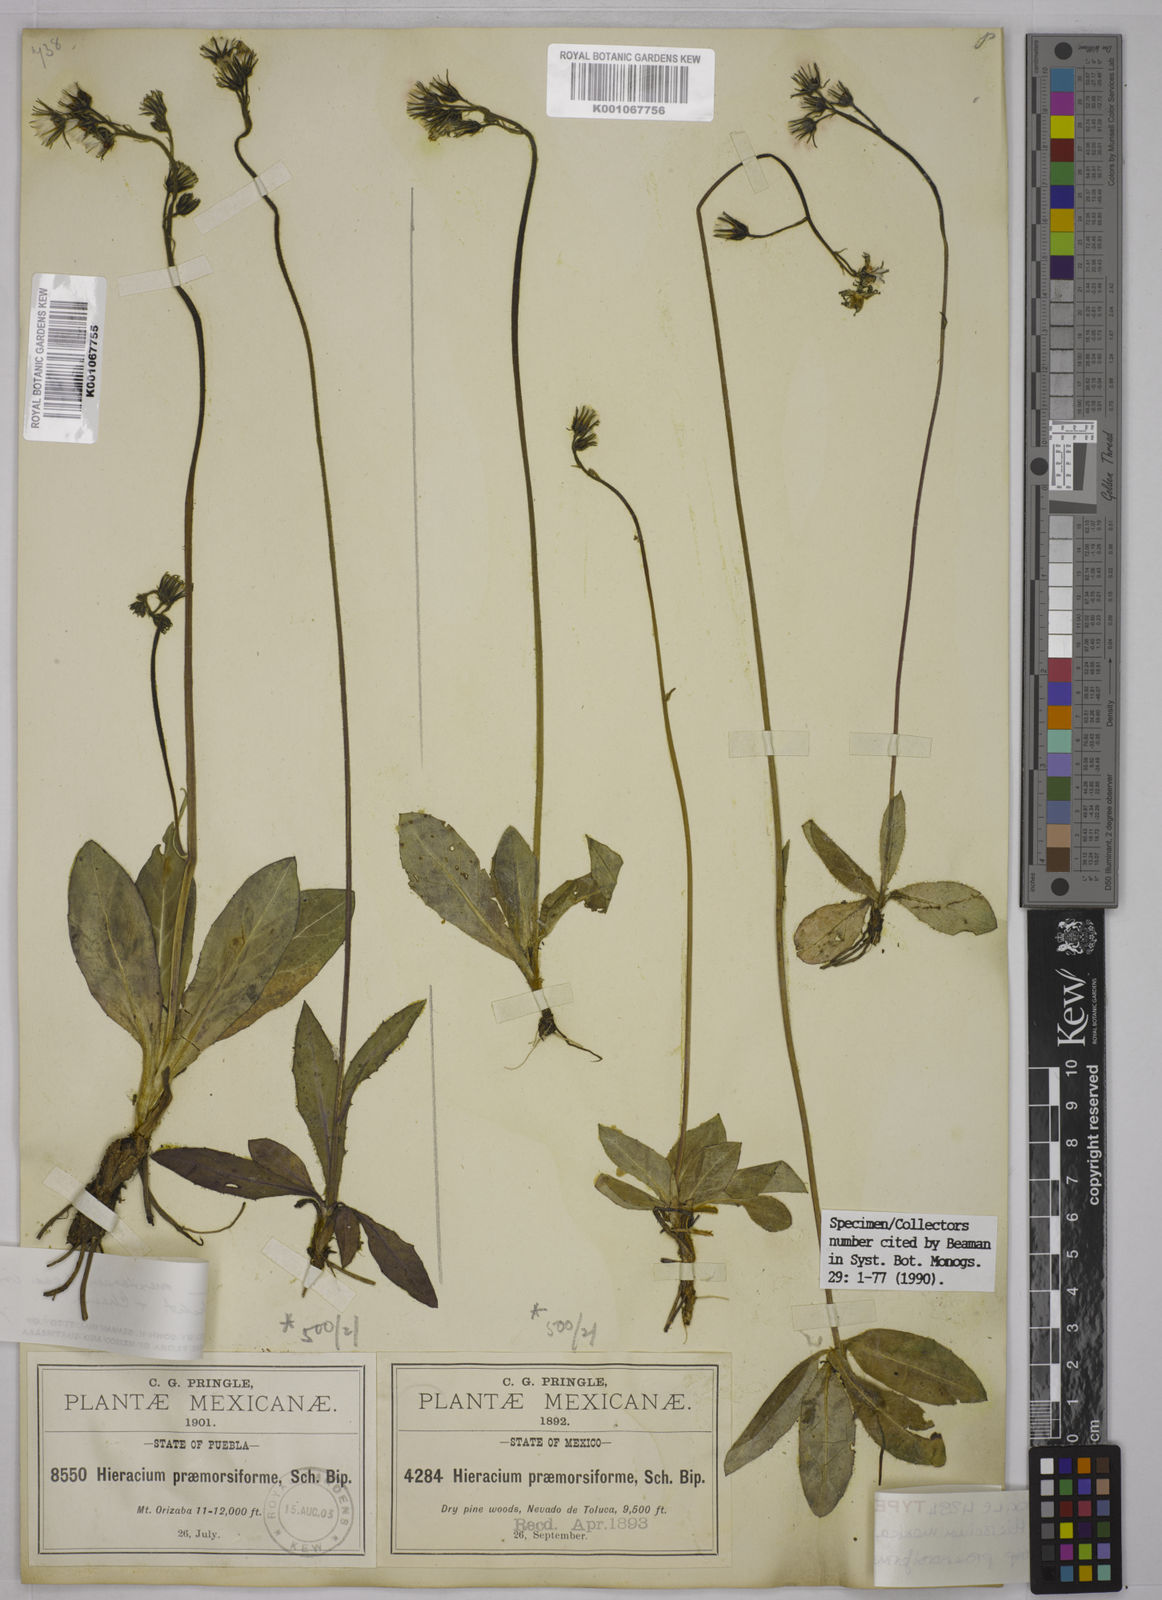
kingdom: Plantae
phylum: Tracheophyta
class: Magnoliopsida
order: Asterales
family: Asteraceae
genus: Hieracium
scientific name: Hieracium mexicanum
